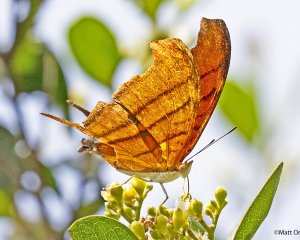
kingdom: Animalia
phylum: Arthropoda
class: Insecta
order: Lepidoptera
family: Nymphalidae
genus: Marpesia
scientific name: Marpesia petreus
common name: Ruddy Daggerwing
